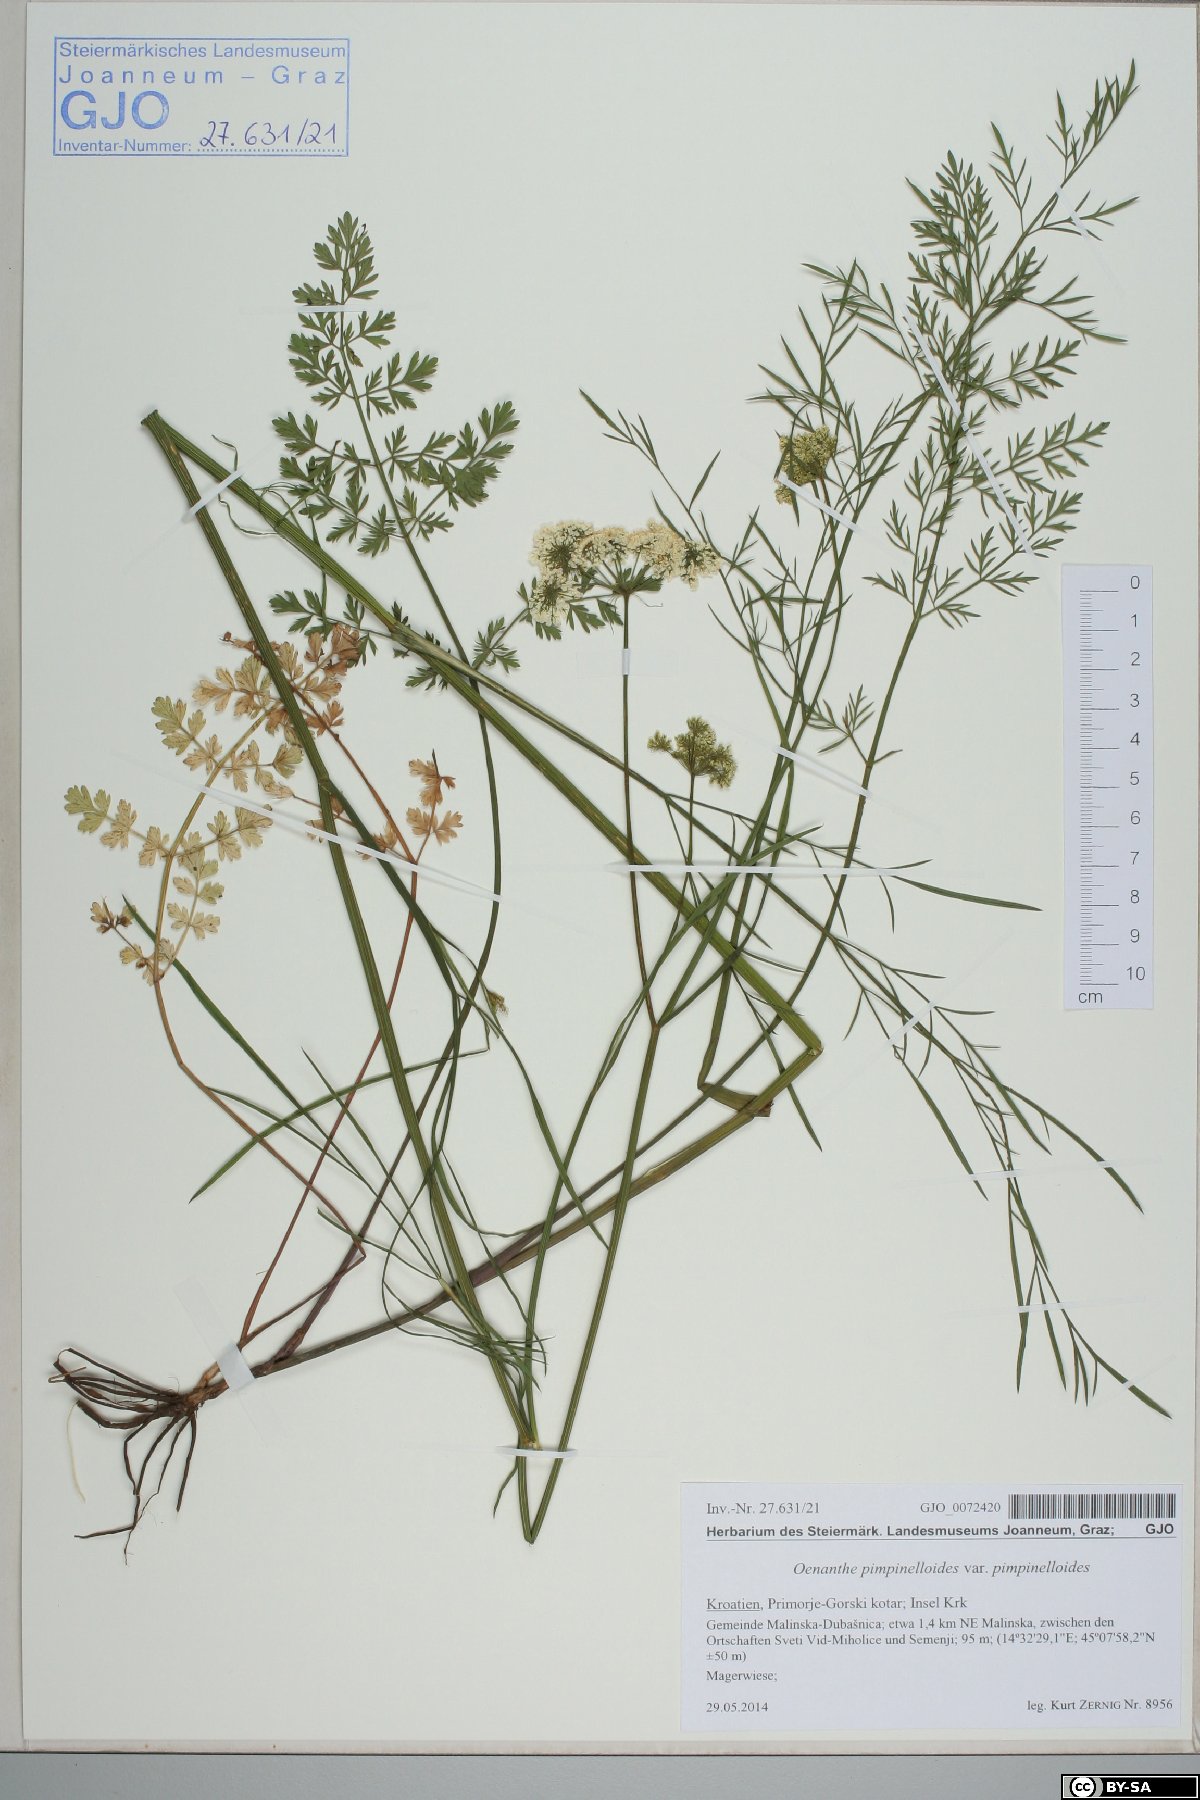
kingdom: Plantae
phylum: Tracheophyta
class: Magnoliopsida
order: Apiales
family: Apiaceae
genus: Oenanthe
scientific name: Oenanthe pimpinelloides
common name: Corky-fruited water-dropwort
